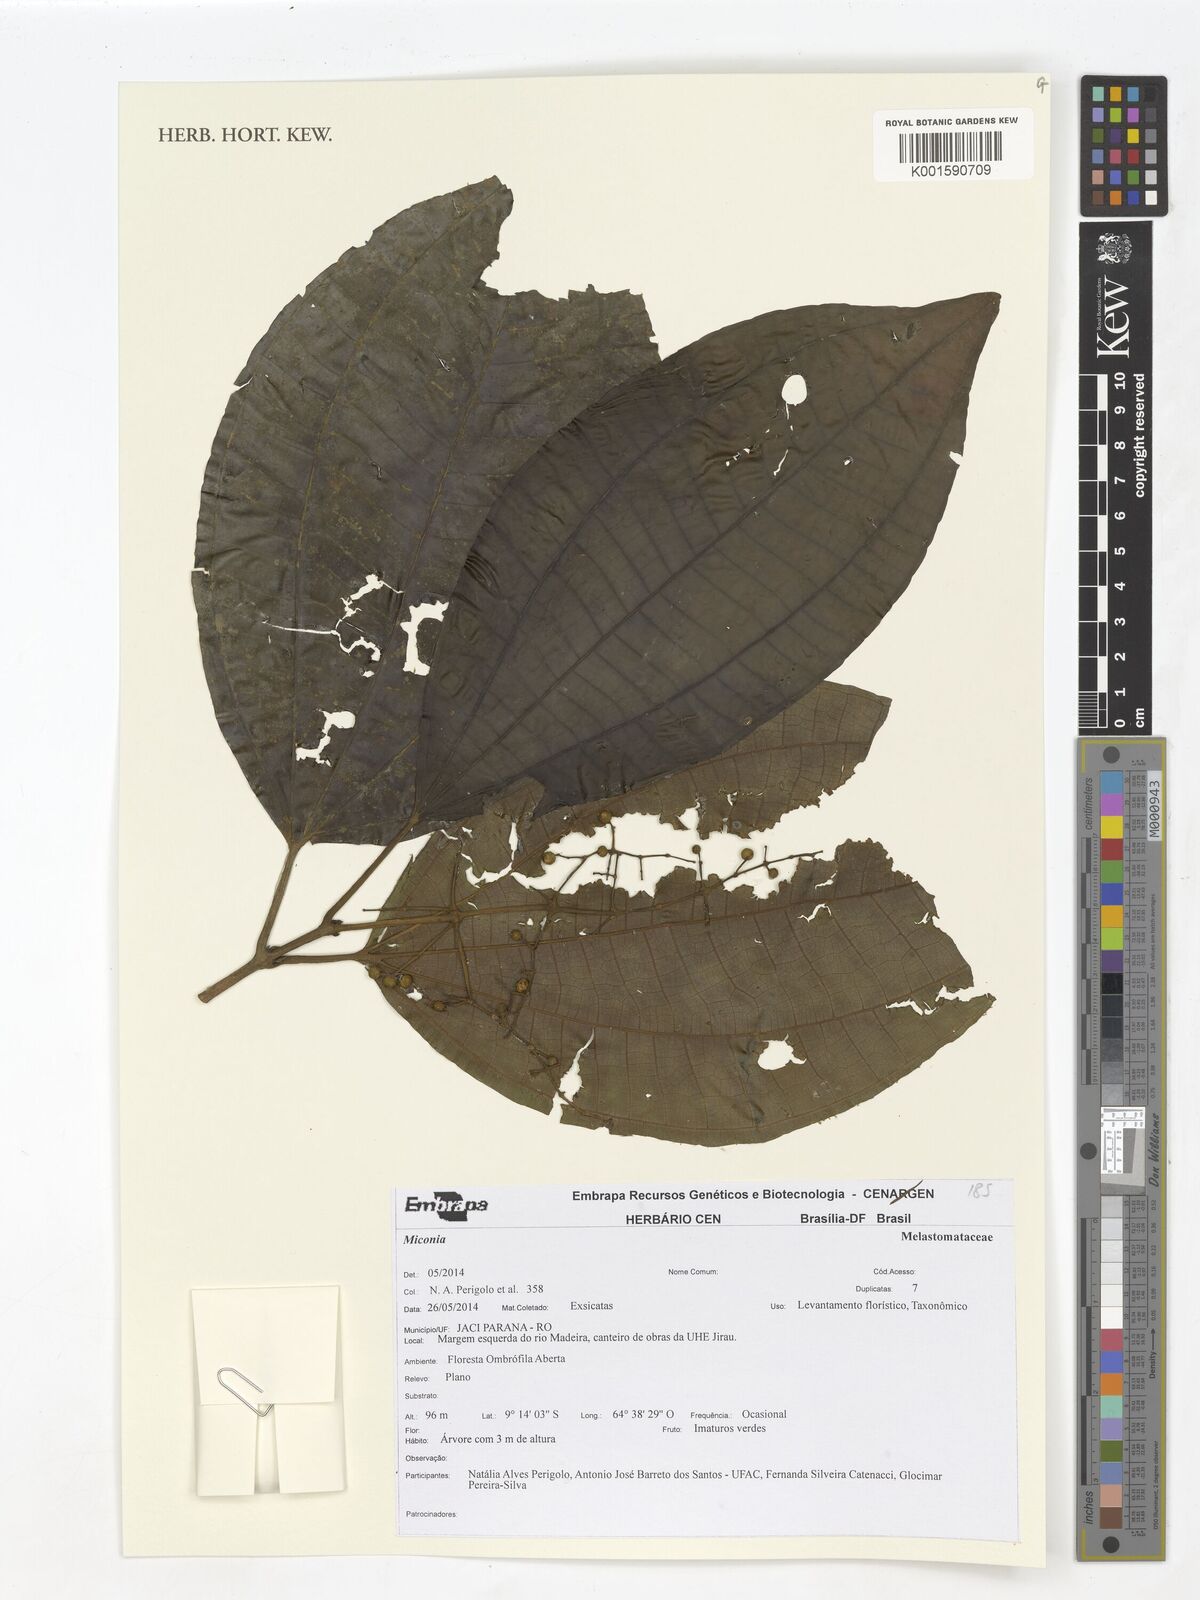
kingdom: Plantae
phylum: Tracheophyta
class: Magnoliopsida
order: Myrtales
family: Melastomataceae
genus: Miconia
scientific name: Miconia
